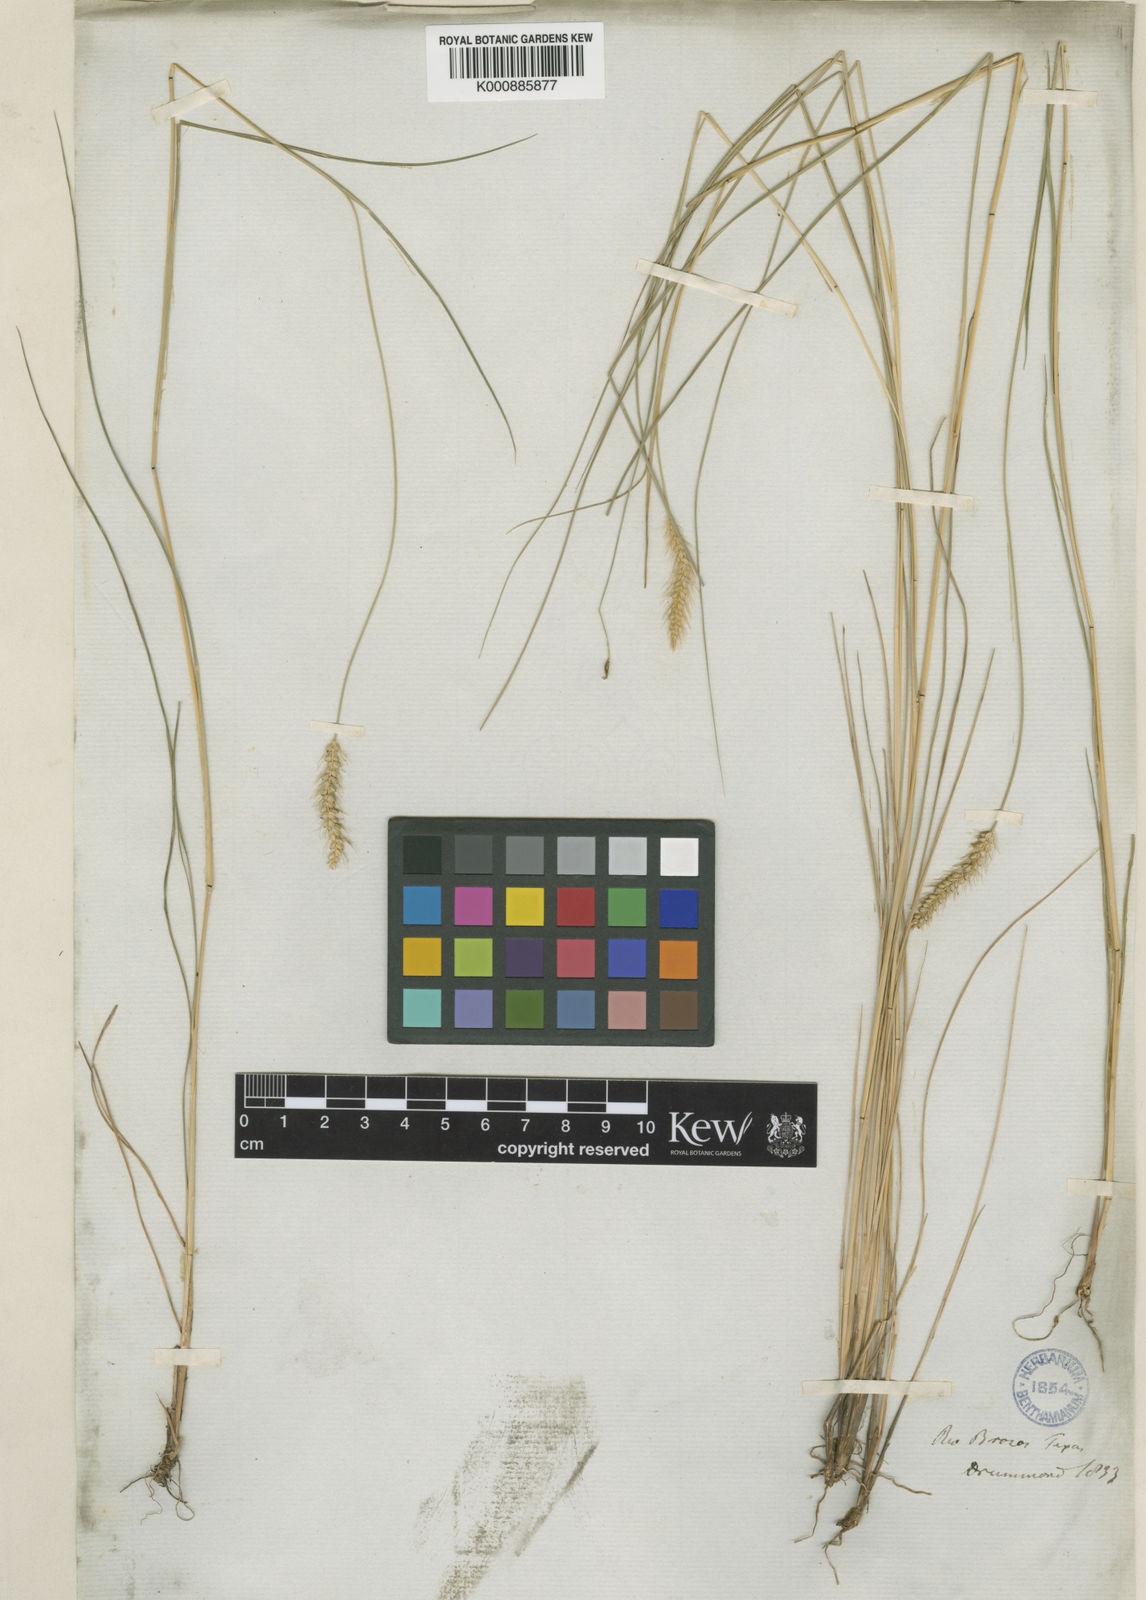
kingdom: Plantae
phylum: Tracheophyta
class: Liliopsida
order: Poales
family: Poaceae
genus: Setaria
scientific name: Setaria
